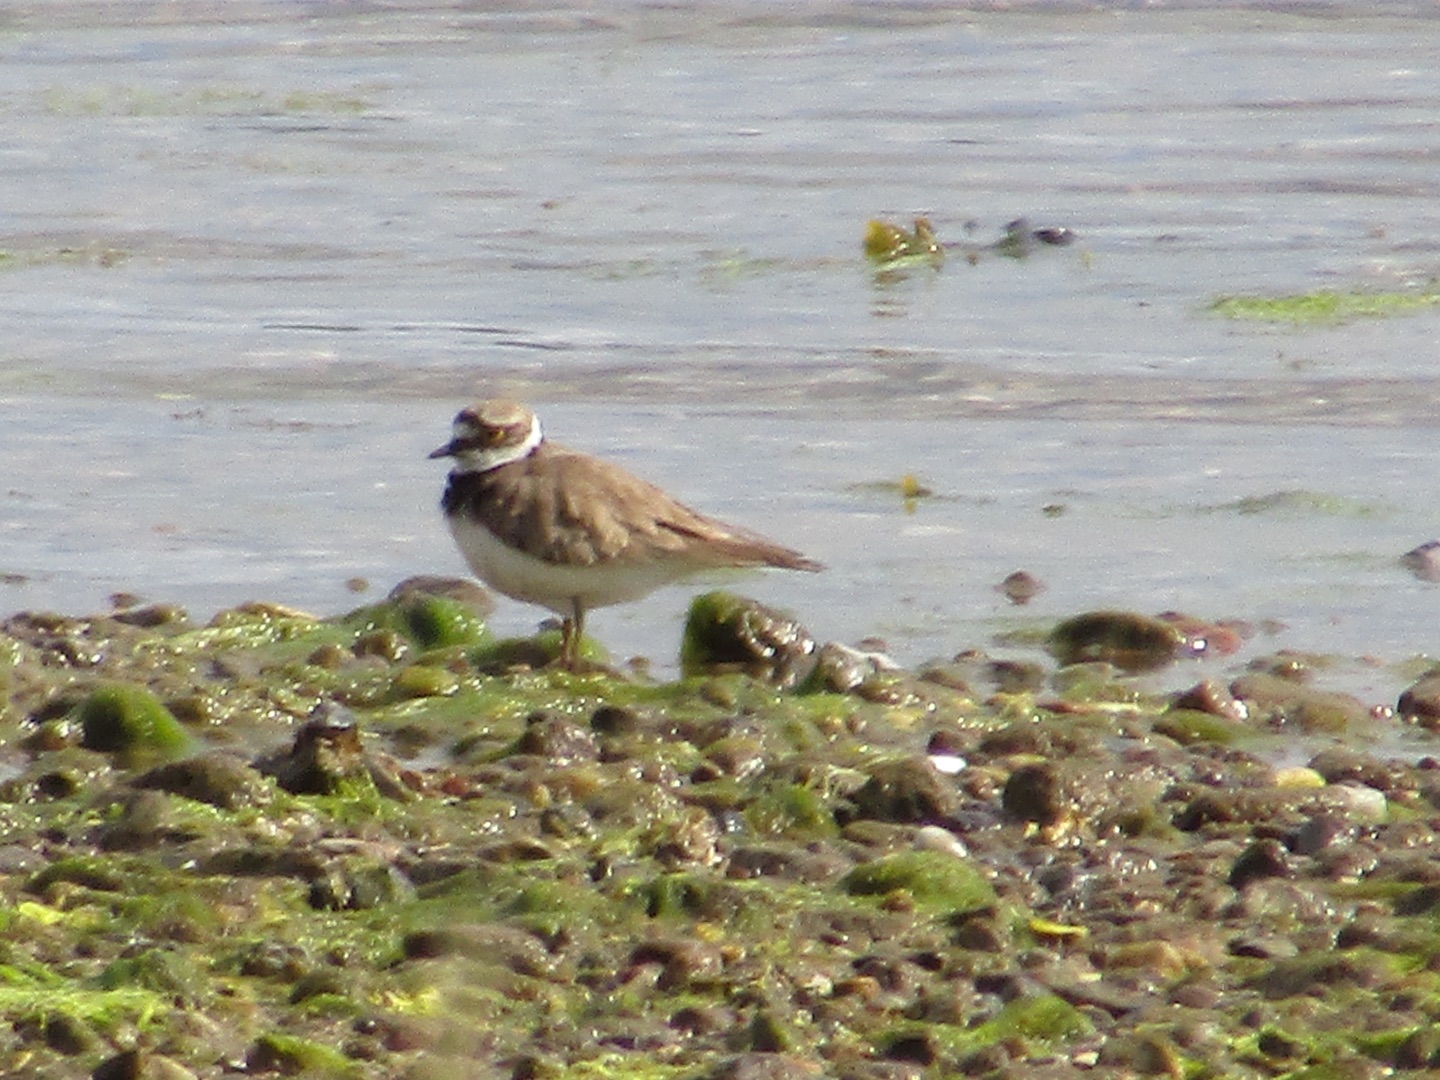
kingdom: Animalia
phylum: Chordata
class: Aves
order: Charadriiformes
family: Charadriidae
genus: Charadrius
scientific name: Charadrius dubius
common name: Lille præstekrave
